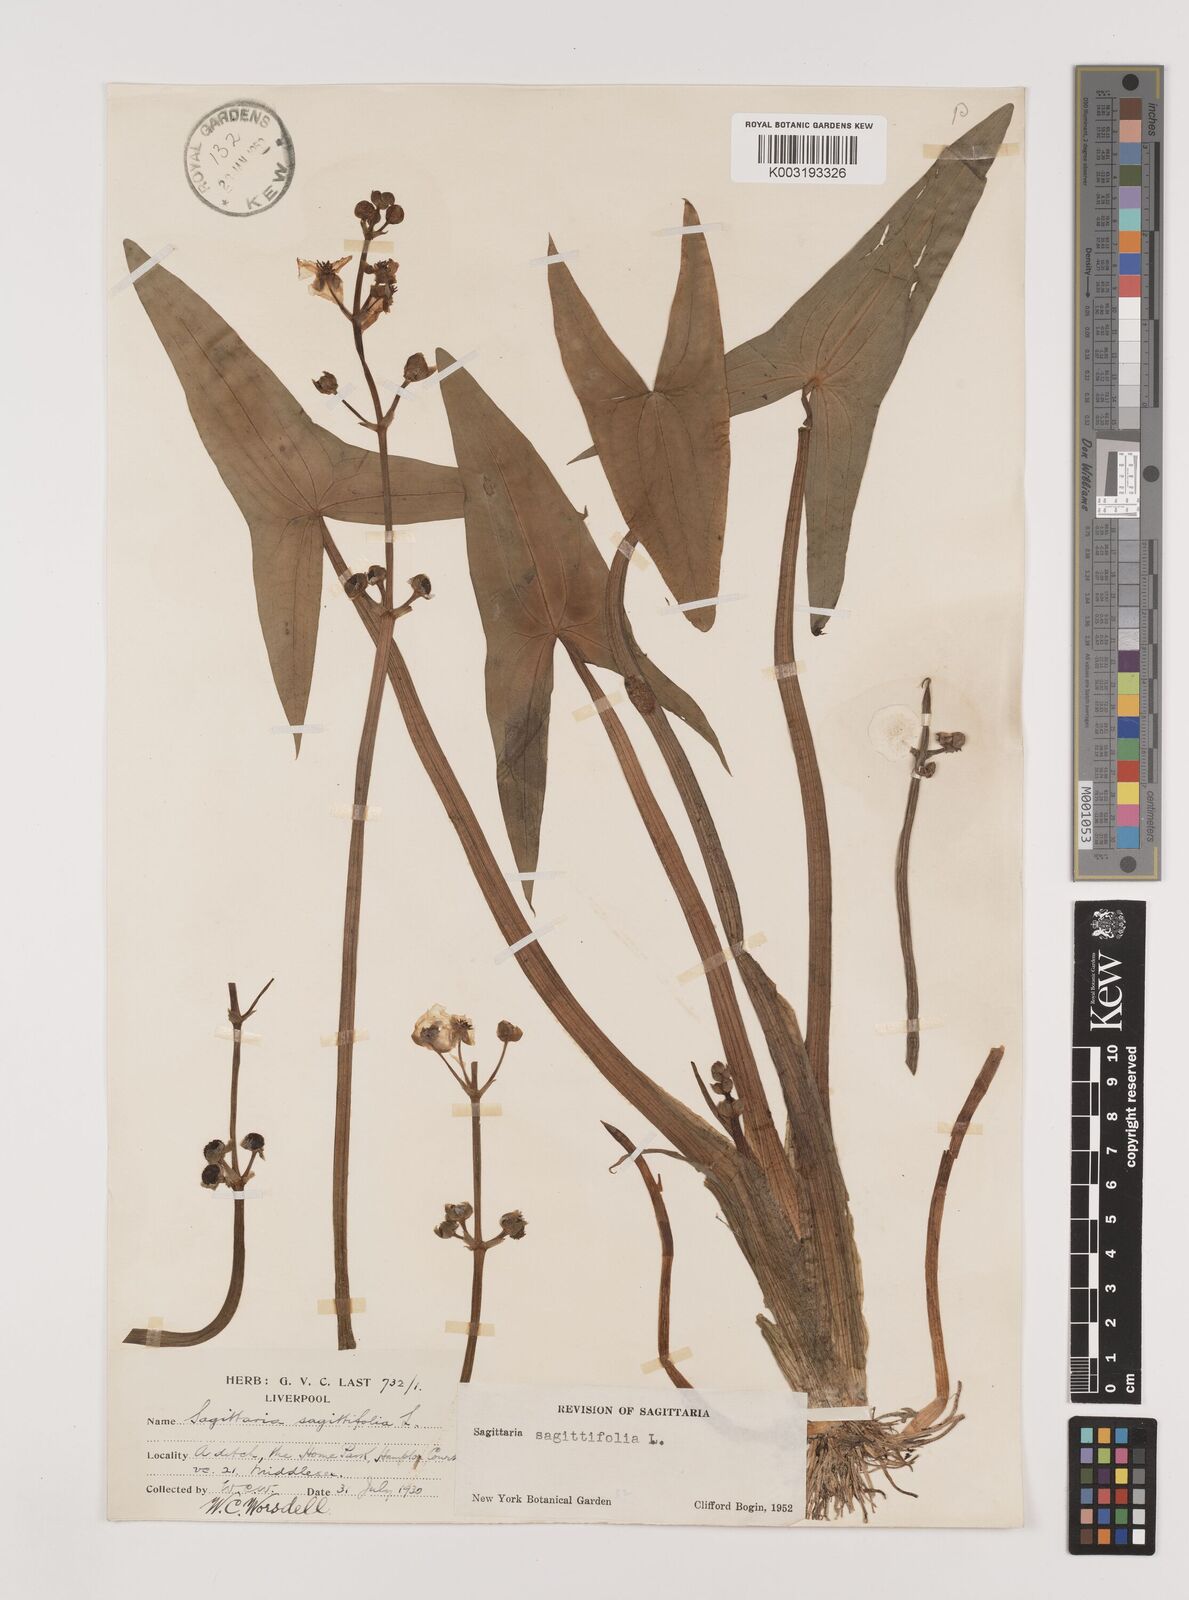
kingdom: Plantae
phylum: Tracheophyta
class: Liliopsida
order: Alismatales
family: Alismataceae
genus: Sagittaria
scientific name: Sagittaria sagittifolia
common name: Arrowhead
